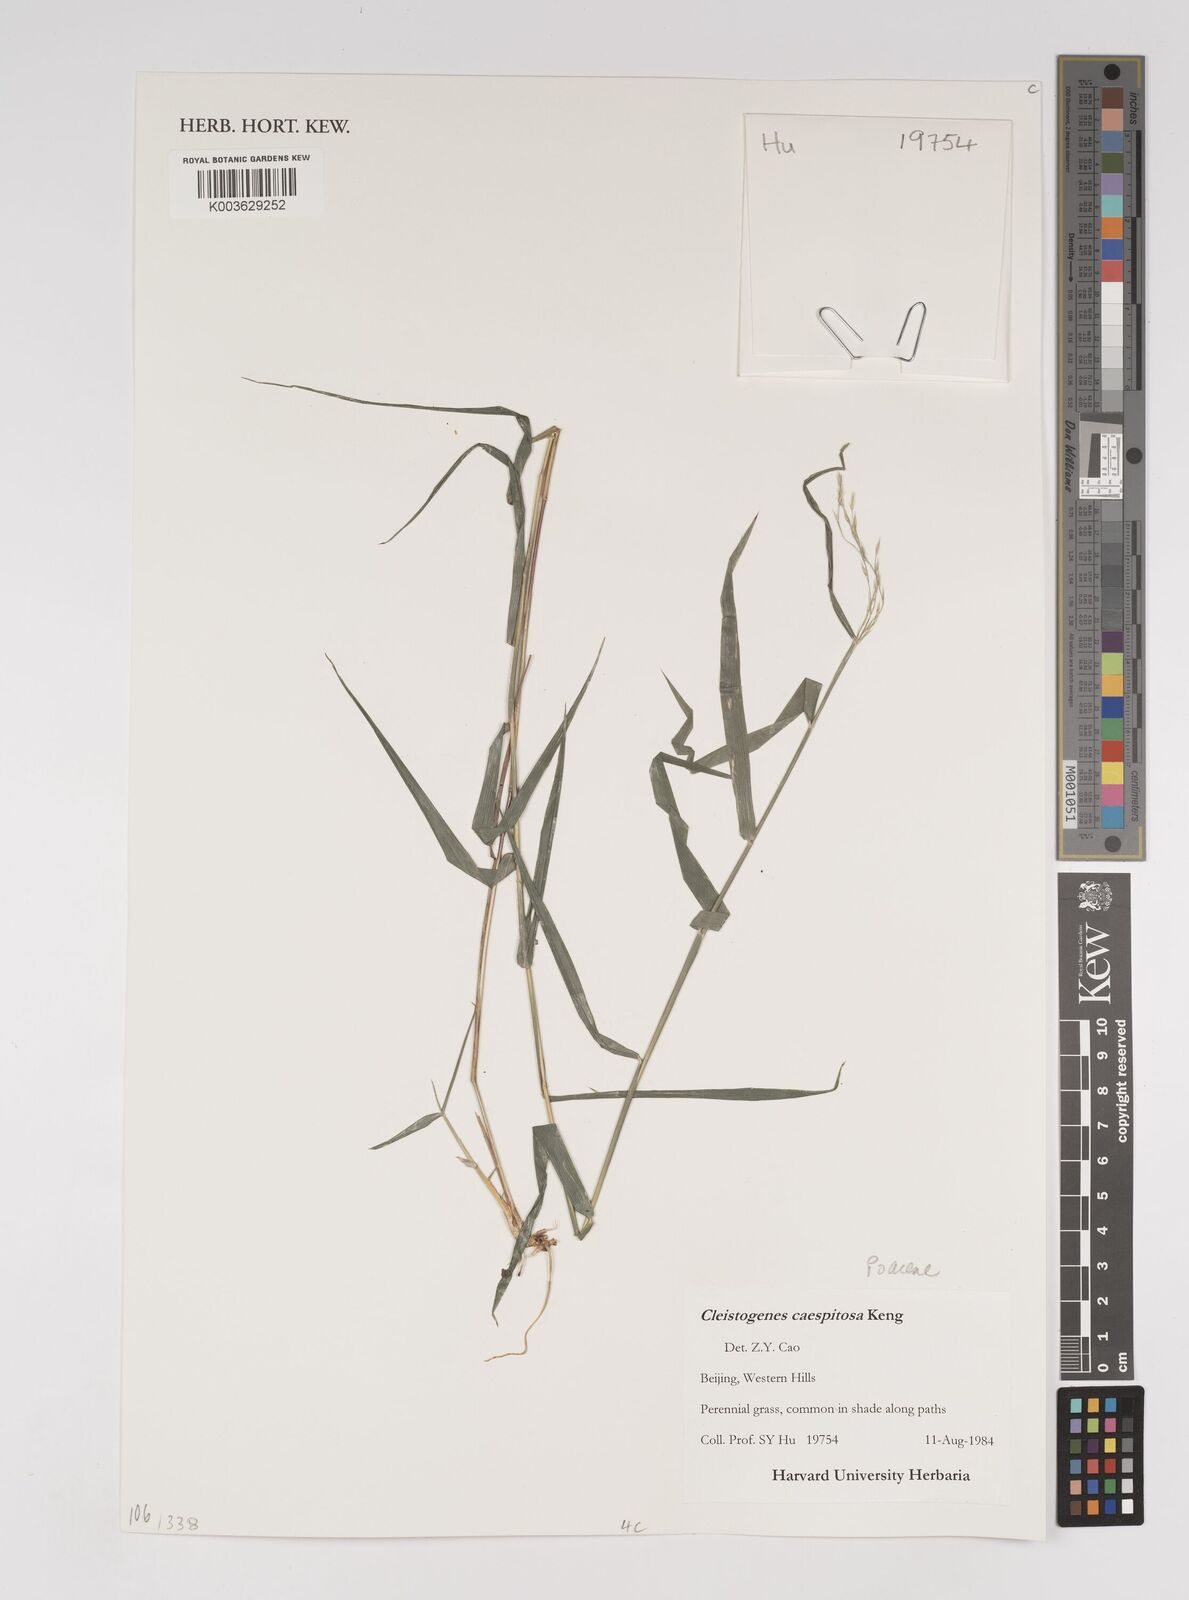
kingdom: Plantae
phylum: Tracheophyta
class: Liliopsida
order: Poales
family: Poaceae
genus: Cleistogenes
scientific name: Cleistogenes caespitosa
